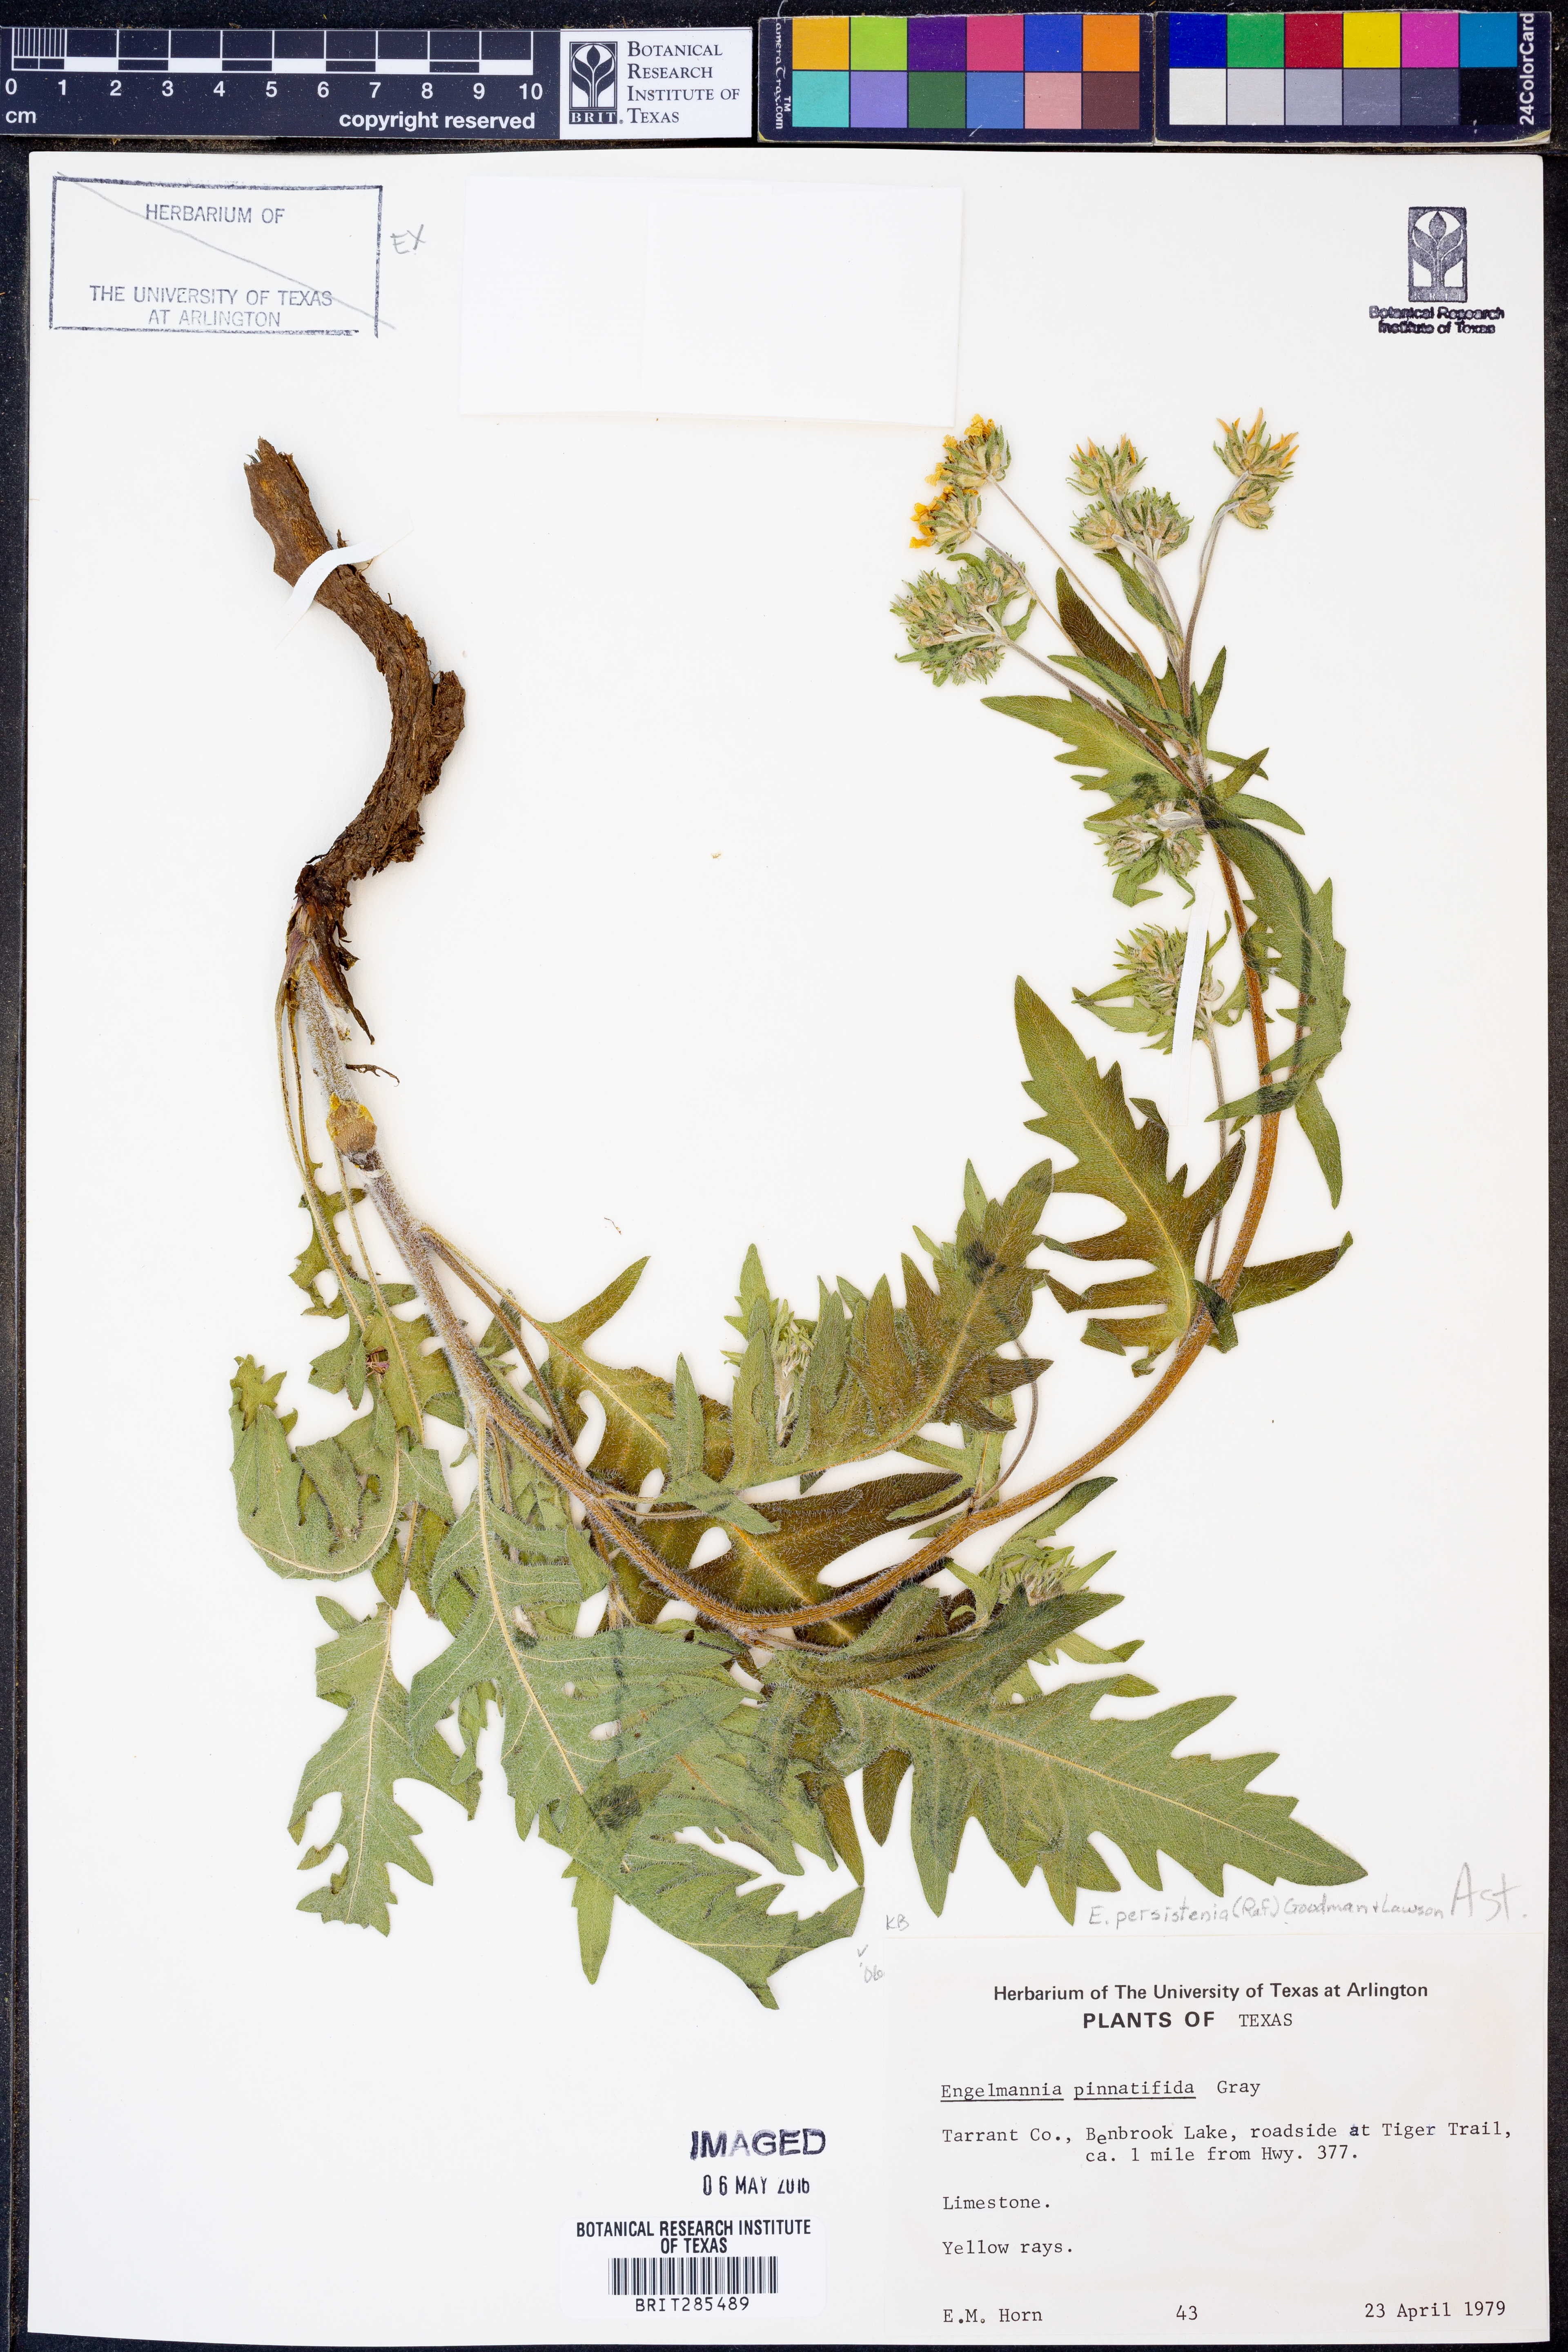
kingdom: Plantae
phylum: Tracheophyta
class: Magnoliopsida
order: Asterales
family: Asteraceae
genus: Engelmannia
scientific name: Engelmannia peristenia
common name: Engelmann's daisy
